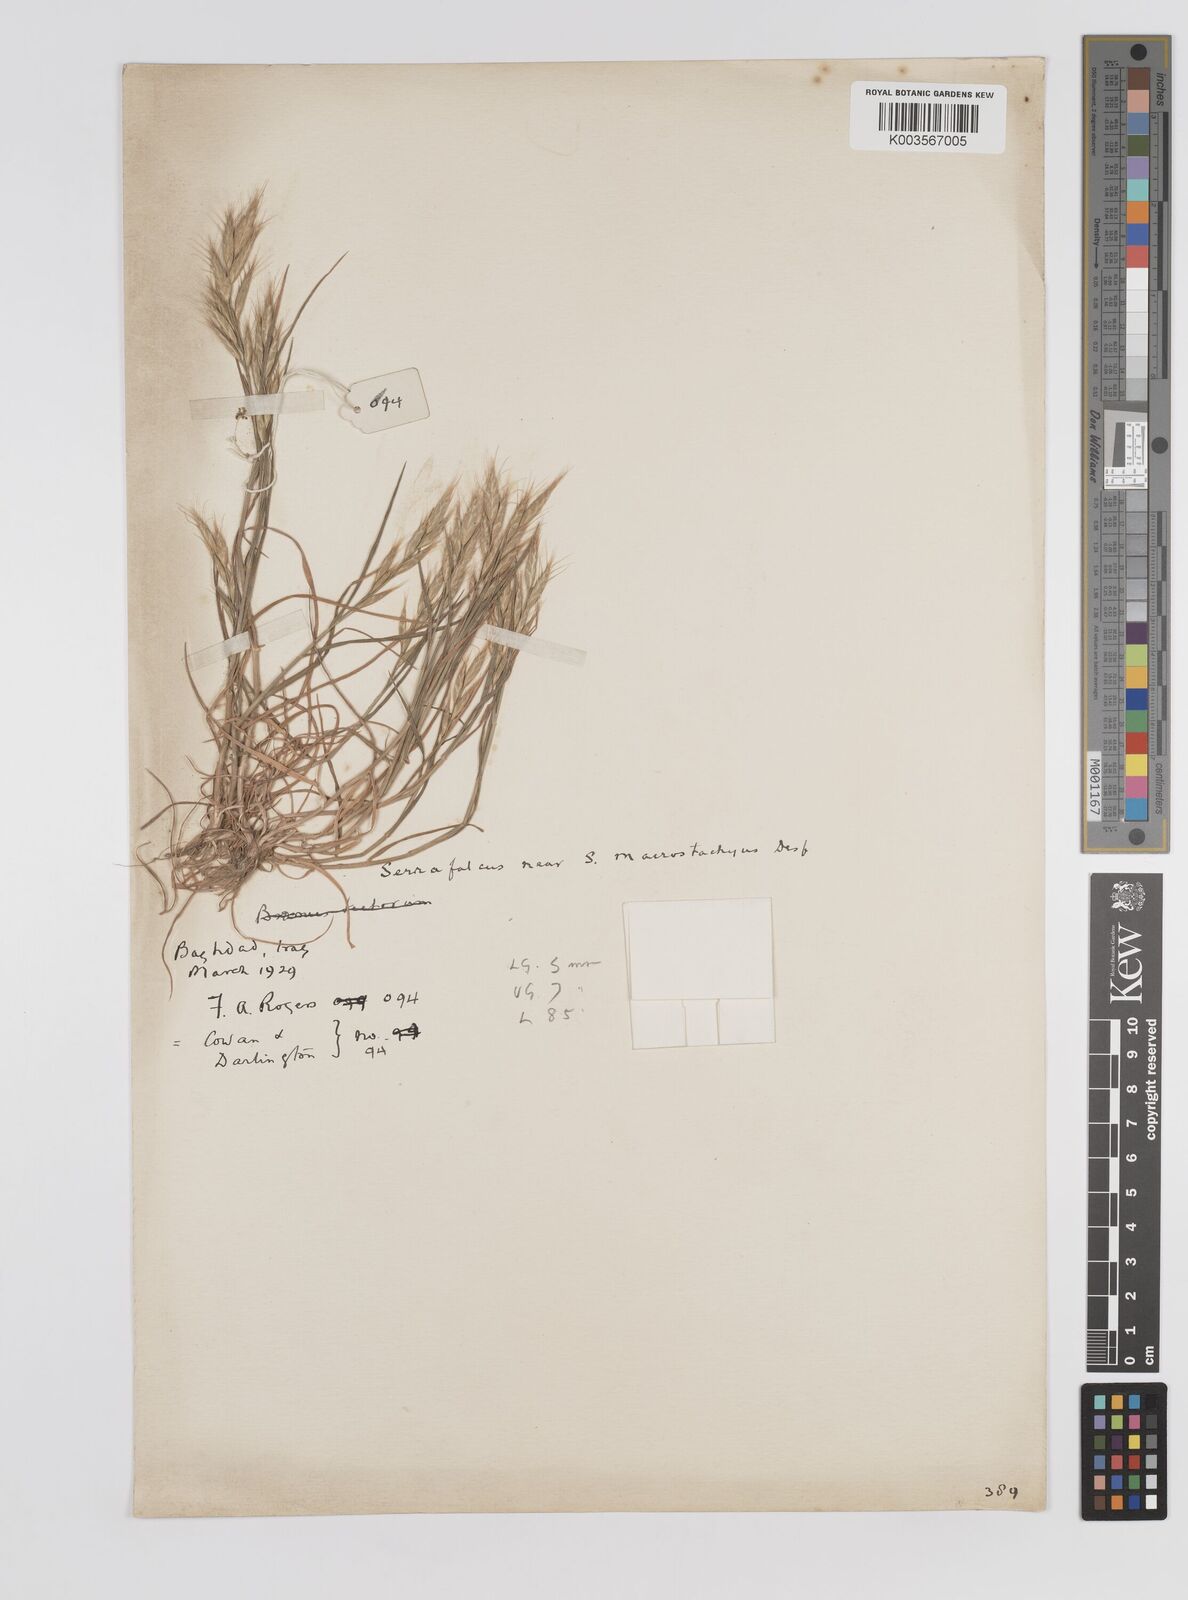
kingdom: Plantae
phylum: Tracheophyta
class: Liliopsida
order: Poales
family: Poaceae
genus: Bromus
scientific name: Bromus danthoniae
